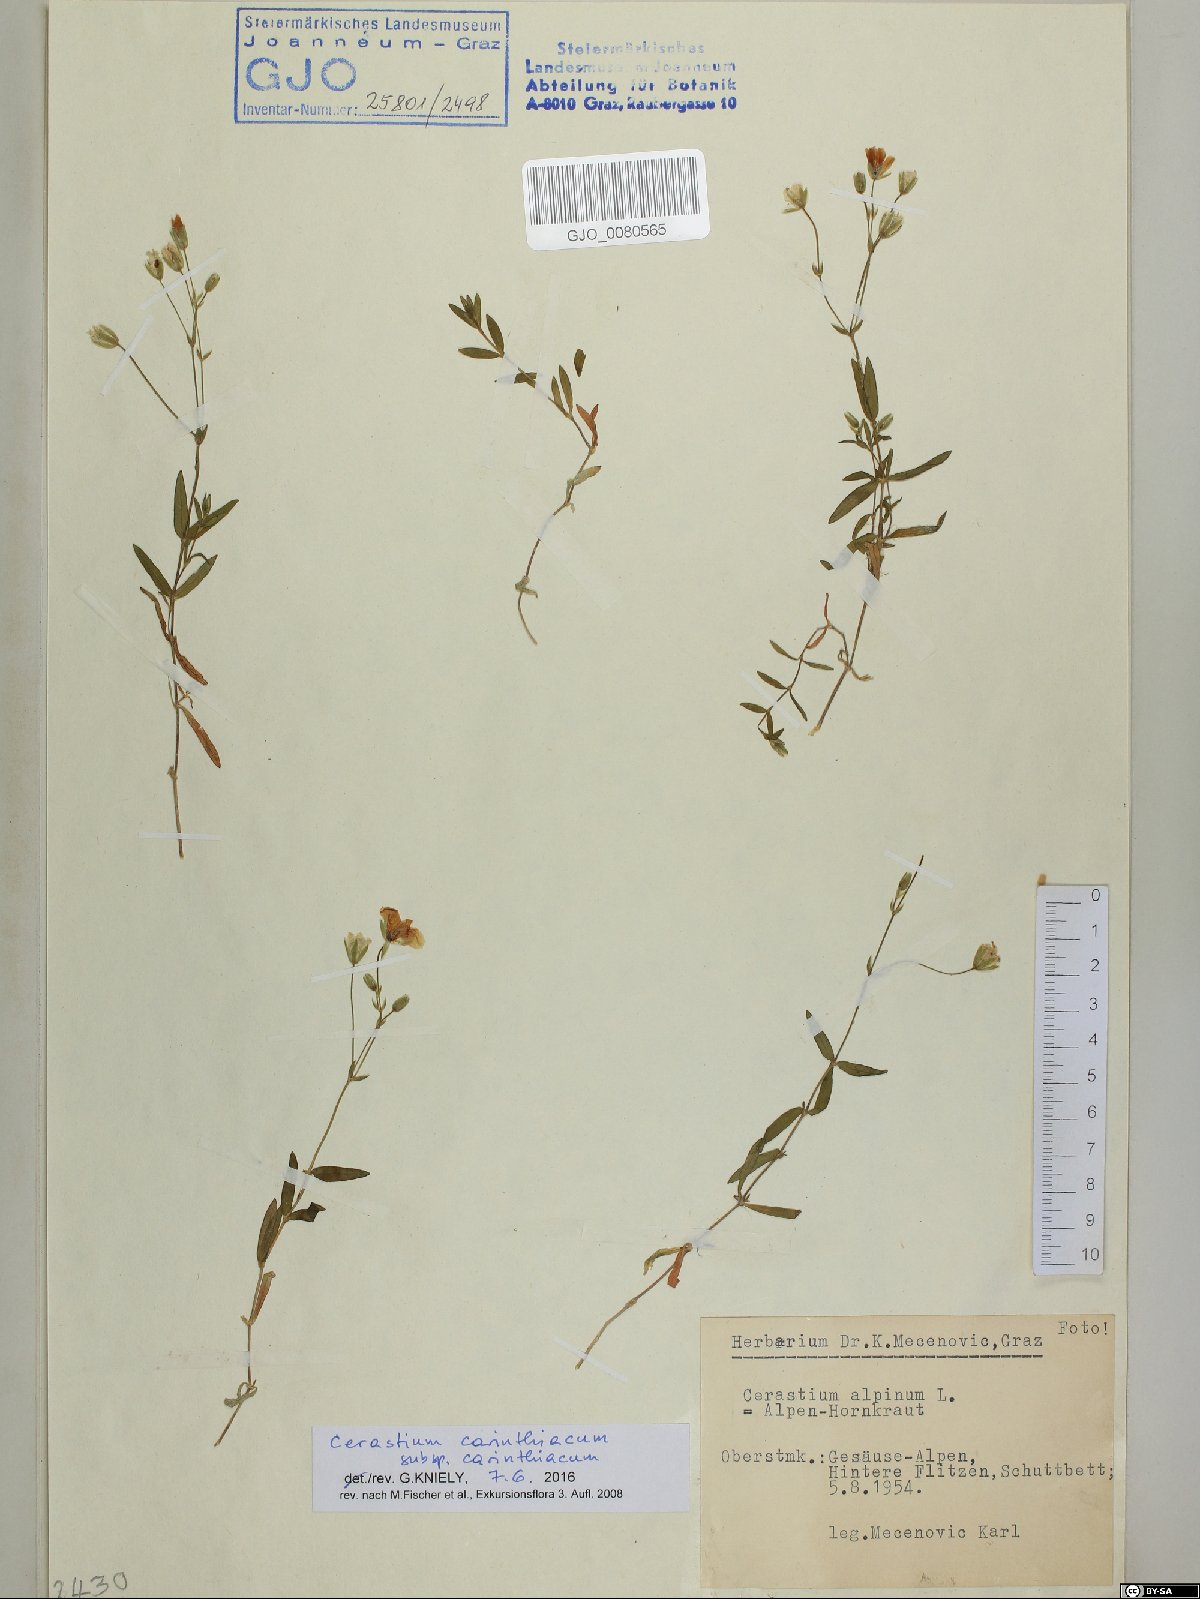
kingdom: Plantae
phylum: Tracheophyta
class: Magnoliopsida
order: Caryophyllales
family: Caryophyllaceae
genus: Cerastium
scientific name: Cerastium carinthiacum
